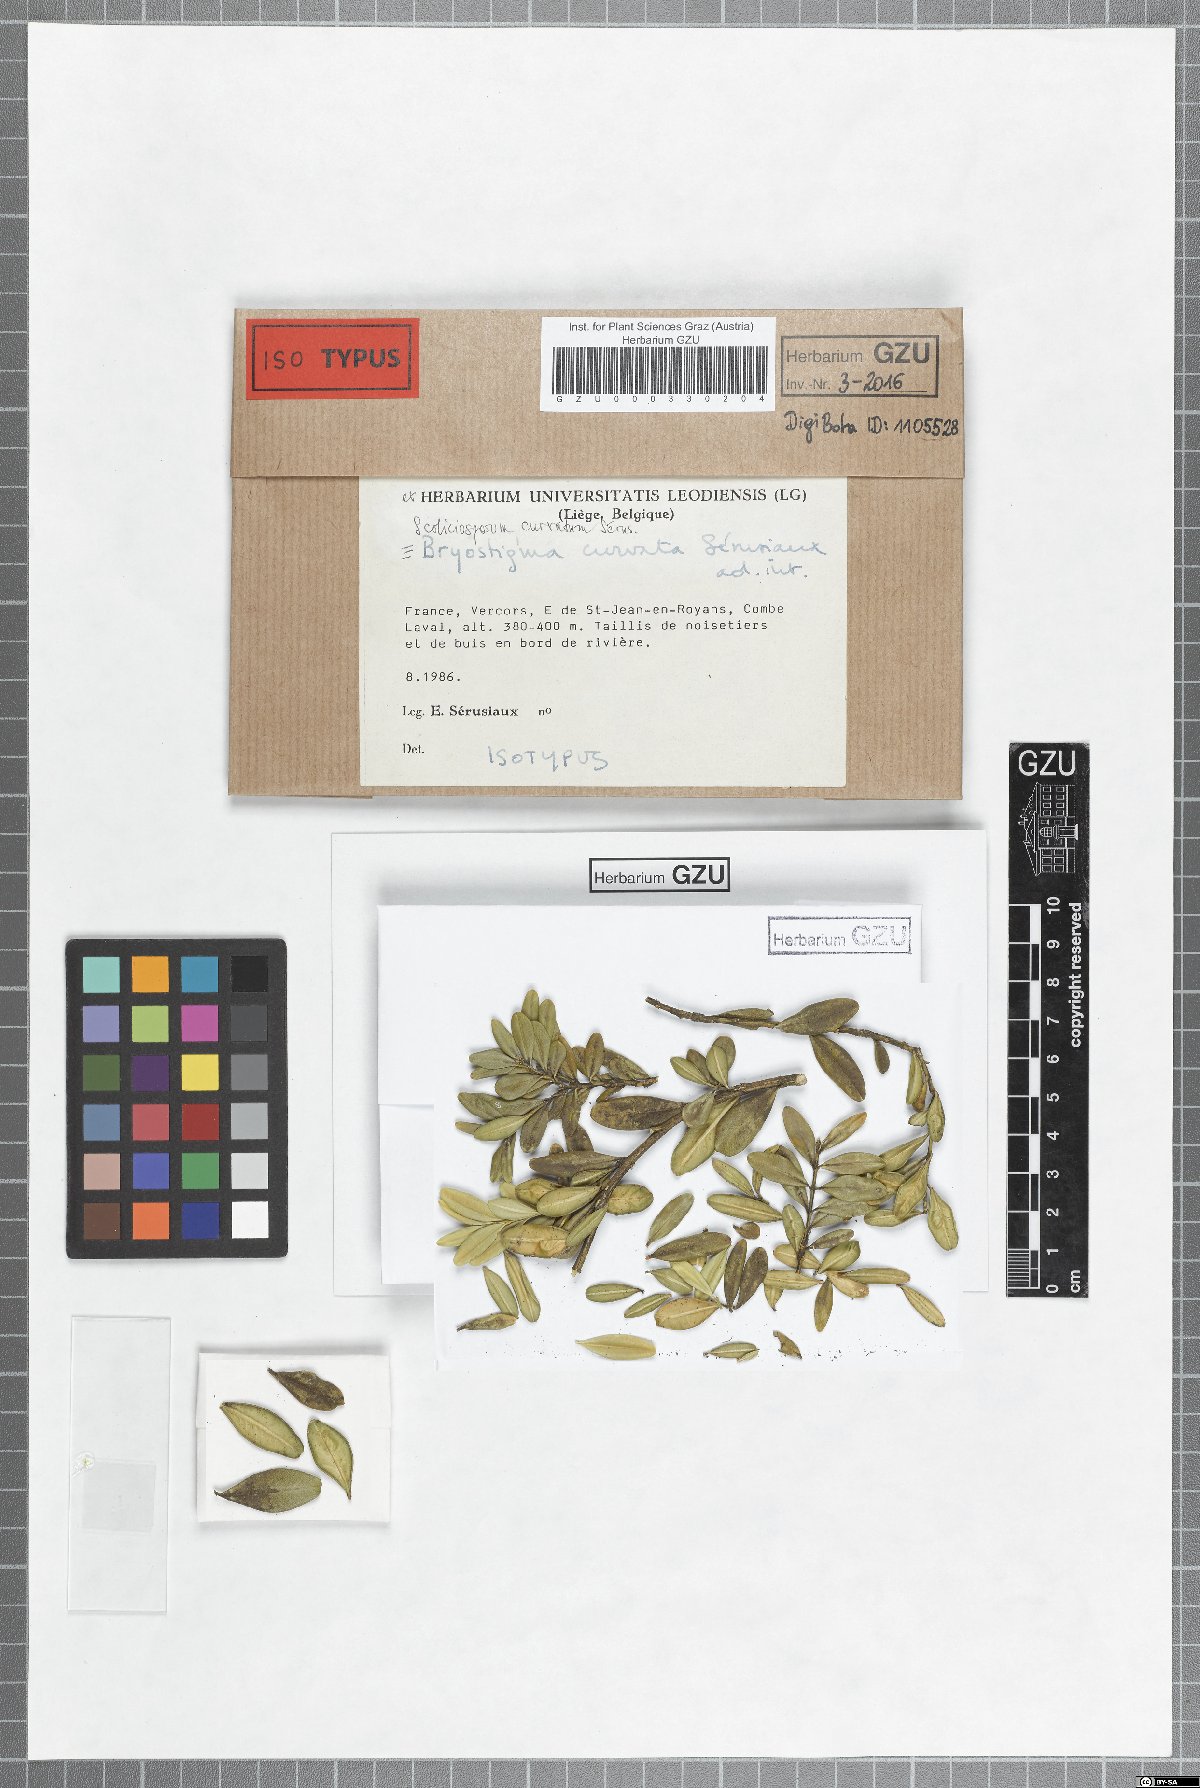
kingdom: Fungi
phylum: Ascomycota
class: Lecanoromycetes
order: Lecanorales
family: Scoliciosporaceae
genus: Scoliciosporum
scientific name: Scoliciosporum curvatum
